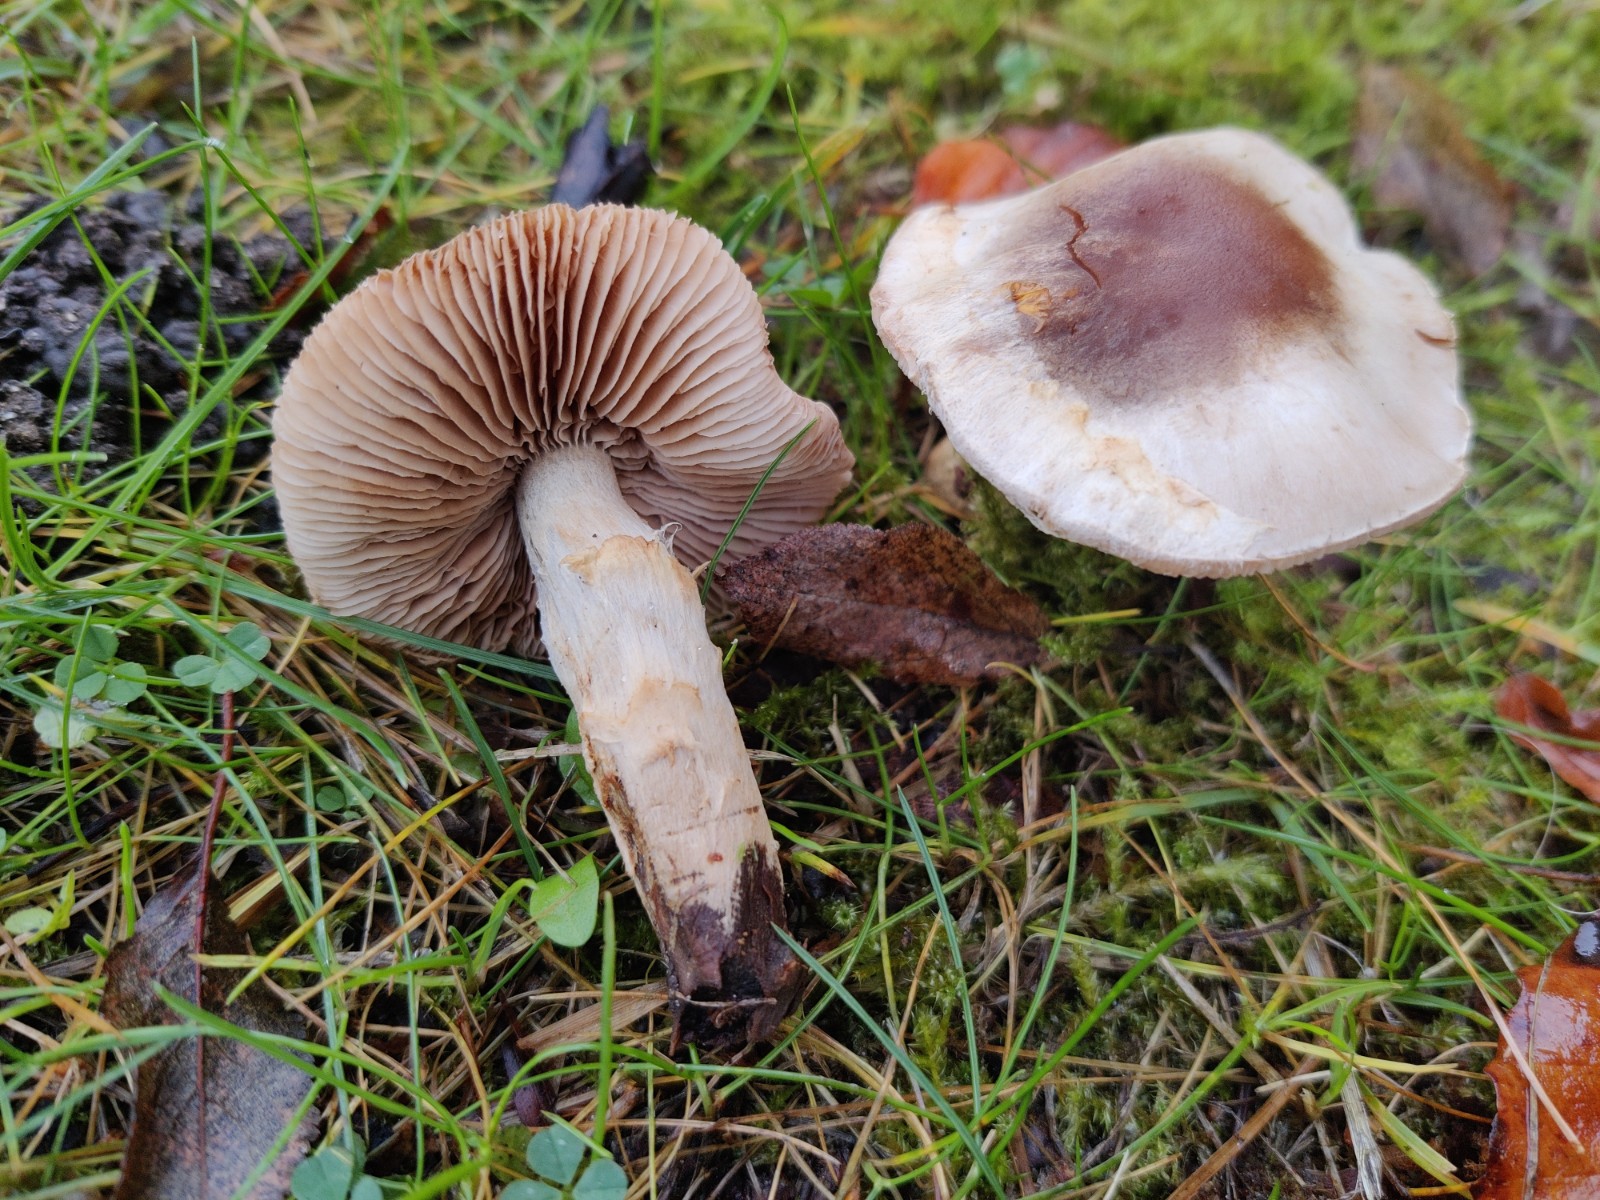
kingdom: Fungi
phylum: Basidiomycota
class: Agaricomycetes
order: Agaricales
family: Hymenogastraceae
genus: Hebeloma
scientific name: Hebeloma mesophaeum
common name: lerbrun tåreblad
